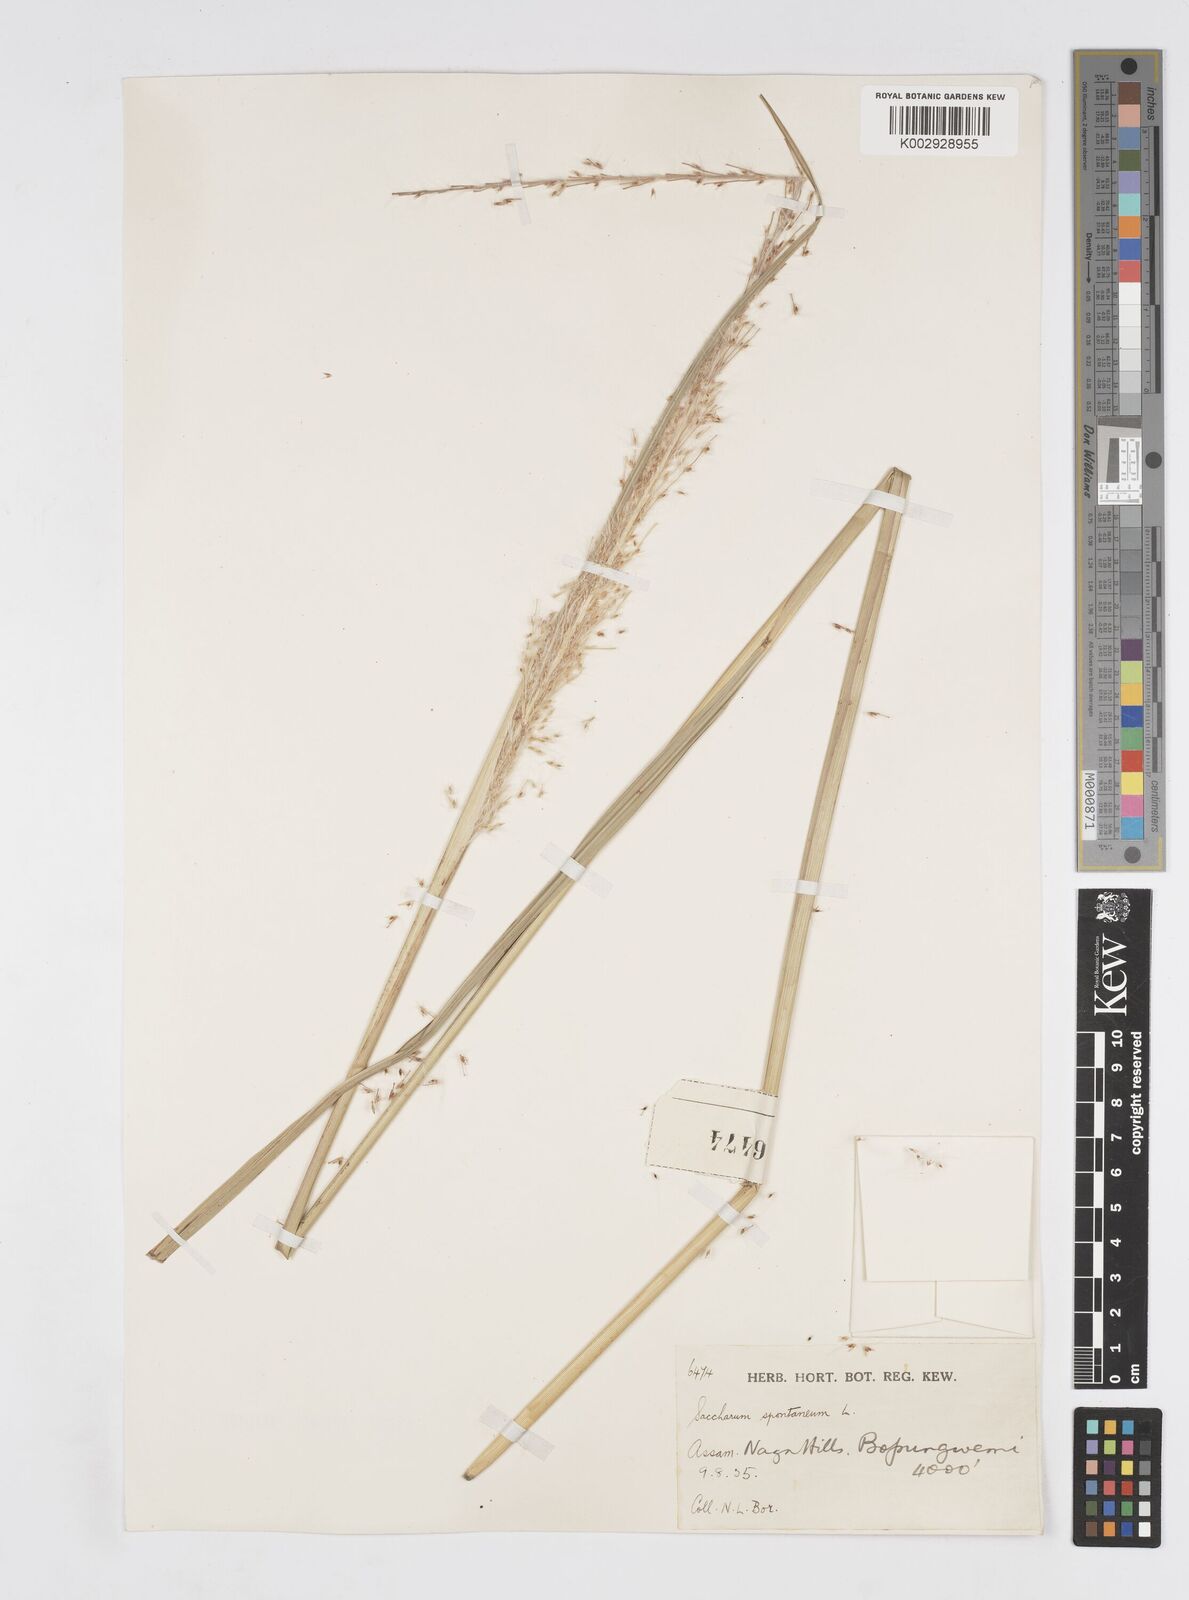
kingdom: Plantae
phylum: Tracheophyta
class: Liliopsida
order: Poales
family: Poaceae
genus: Saccharum
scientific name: Saccharum spontaneum
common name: Wild sugarcane
